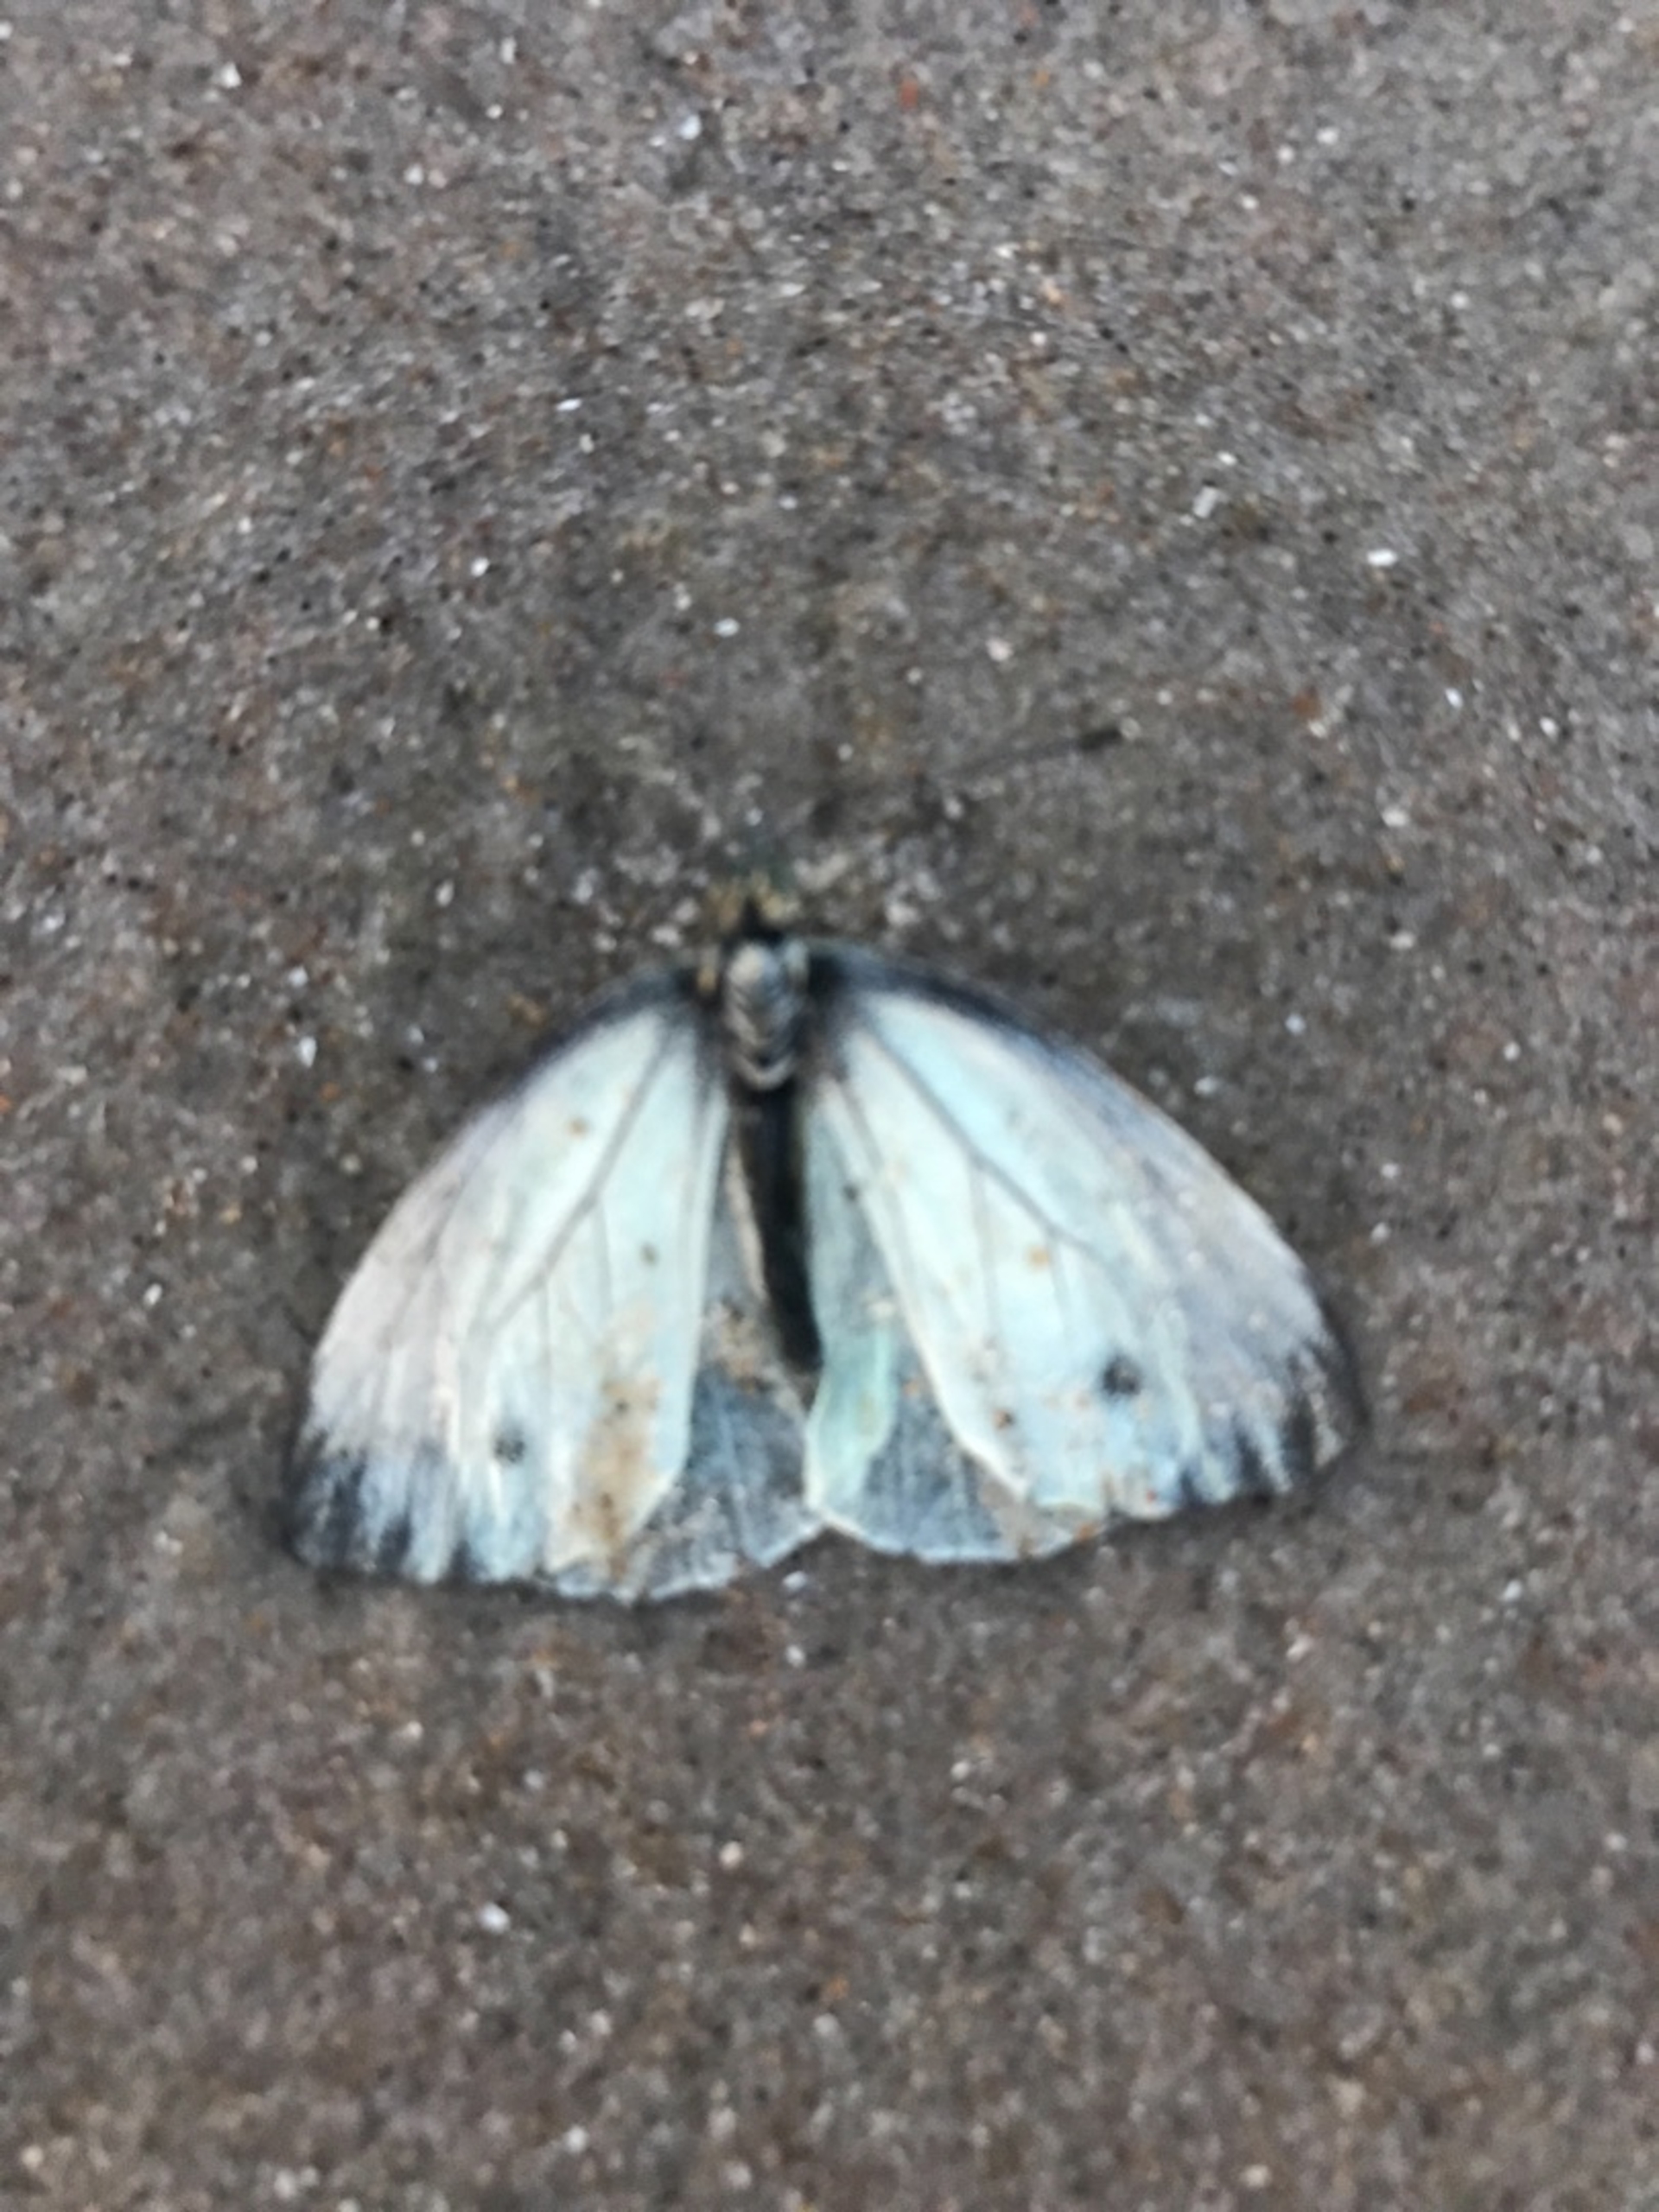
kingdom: Animalia
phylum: Arthropoda
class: Insecta
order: Lepidoptera
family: Pieridae
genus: Pieris
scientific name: Pieris napi
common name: Grønåret kålsommerfugl
